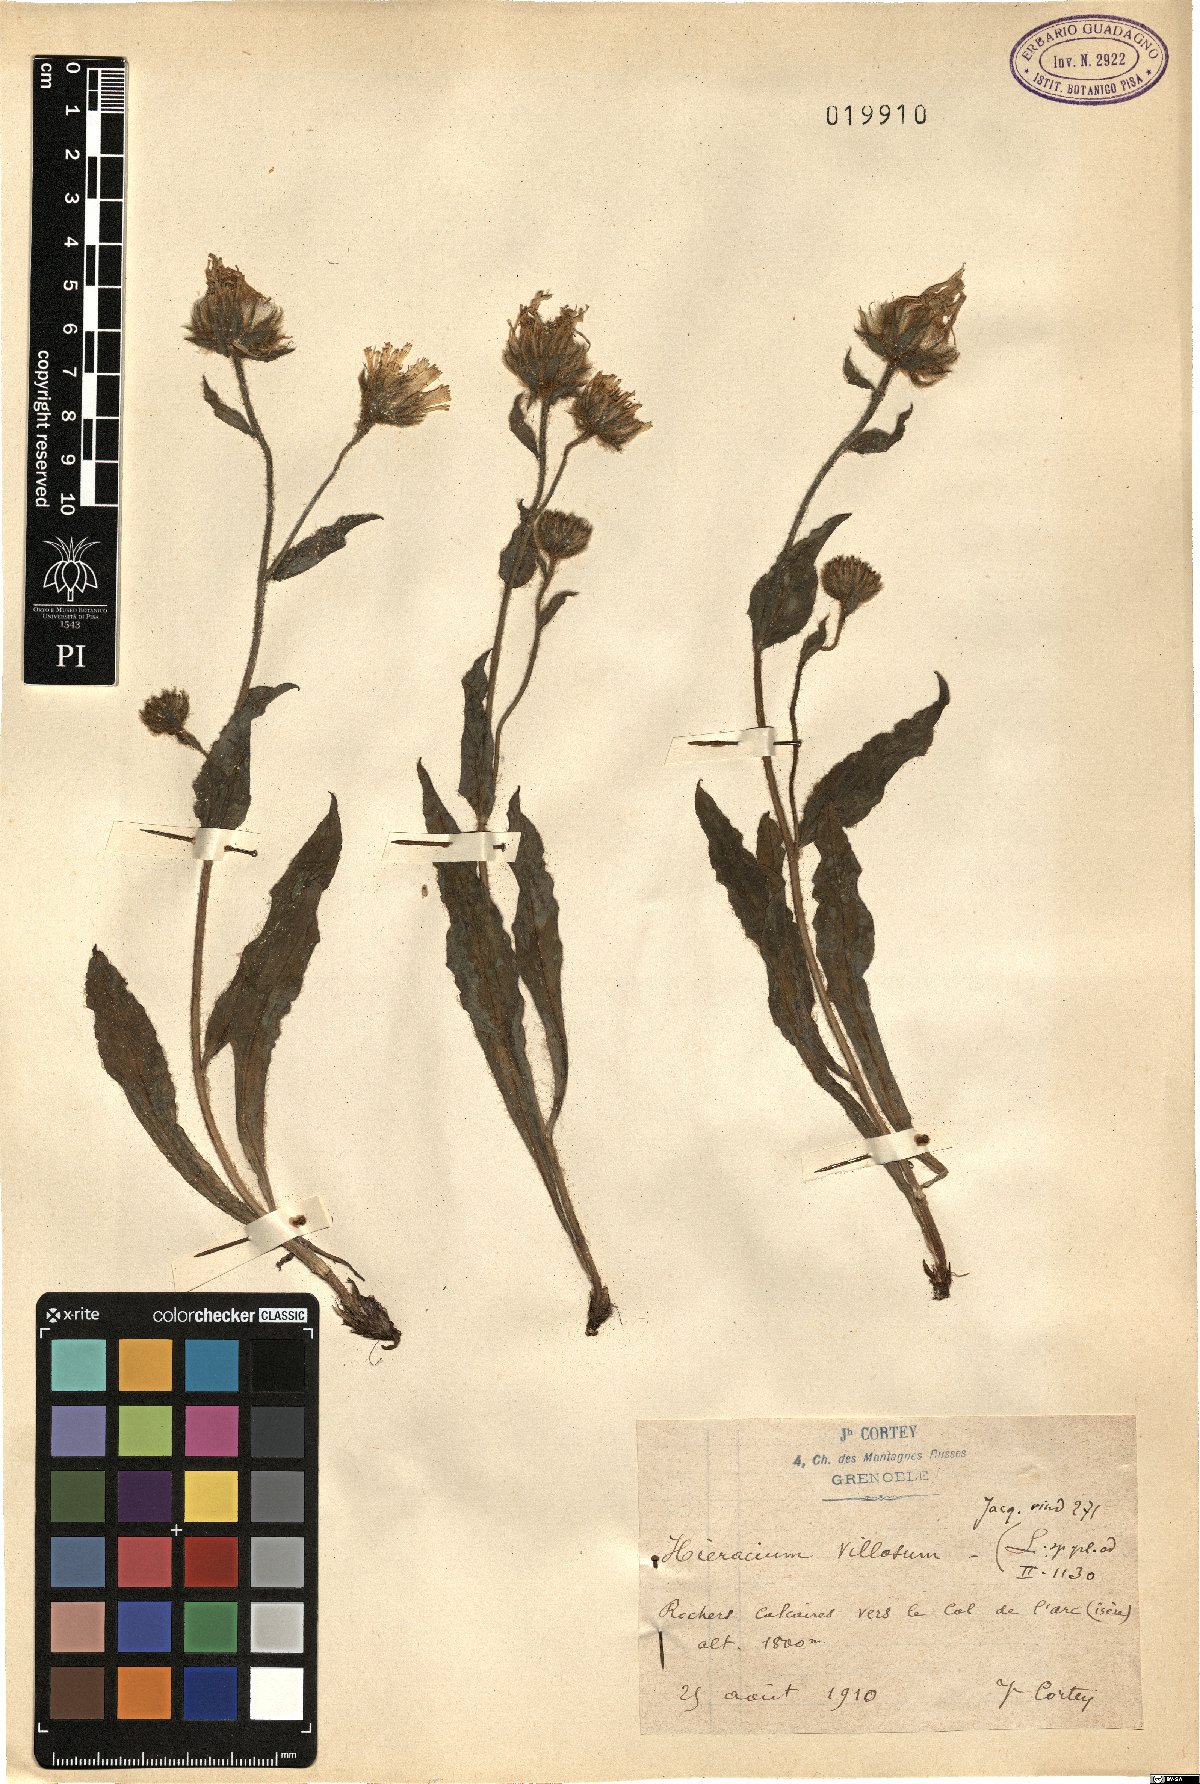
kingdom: Plantae
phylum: Tracheophyta
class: Magnoliopsida
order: Asterales
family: Asteraceae
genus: Hieracium
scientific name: Hieracium villosum
